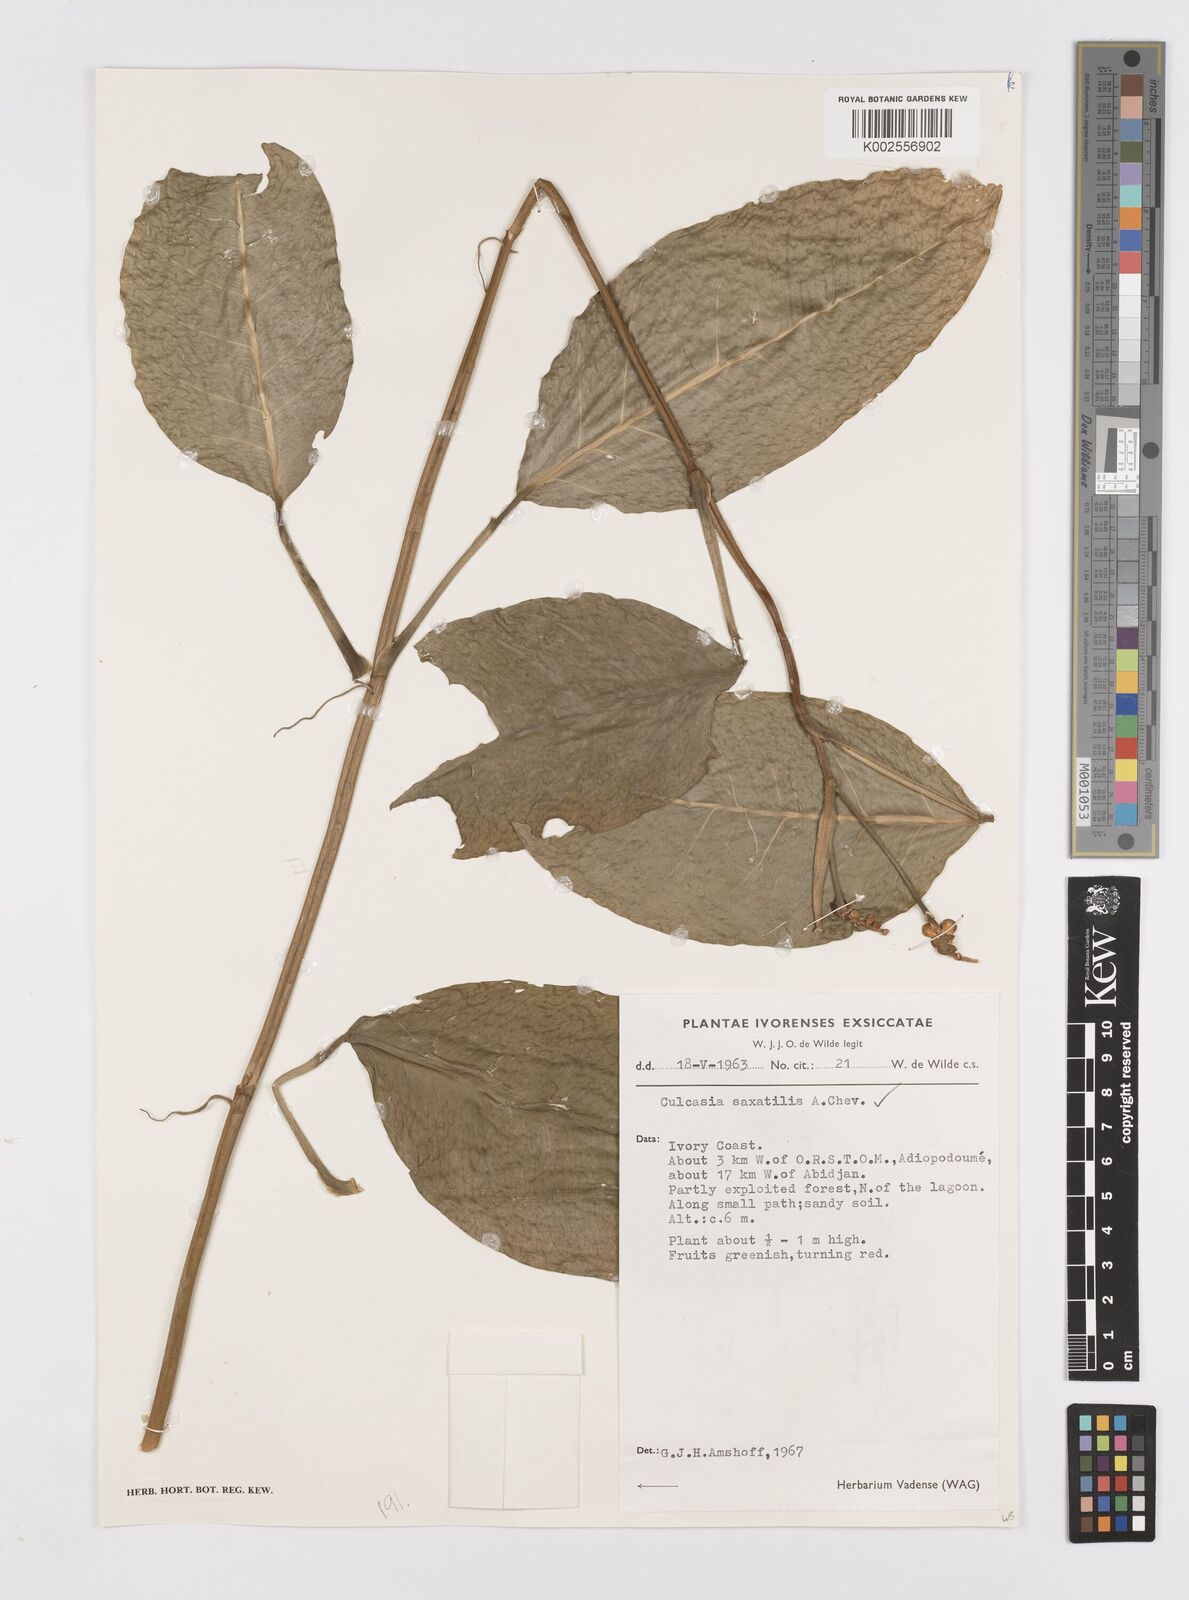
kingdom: Plantae
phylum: Tracheophyta
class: Liliopsida
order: Alismatales
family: Araceae
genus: Culcasia
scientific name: Culcasia scandens
